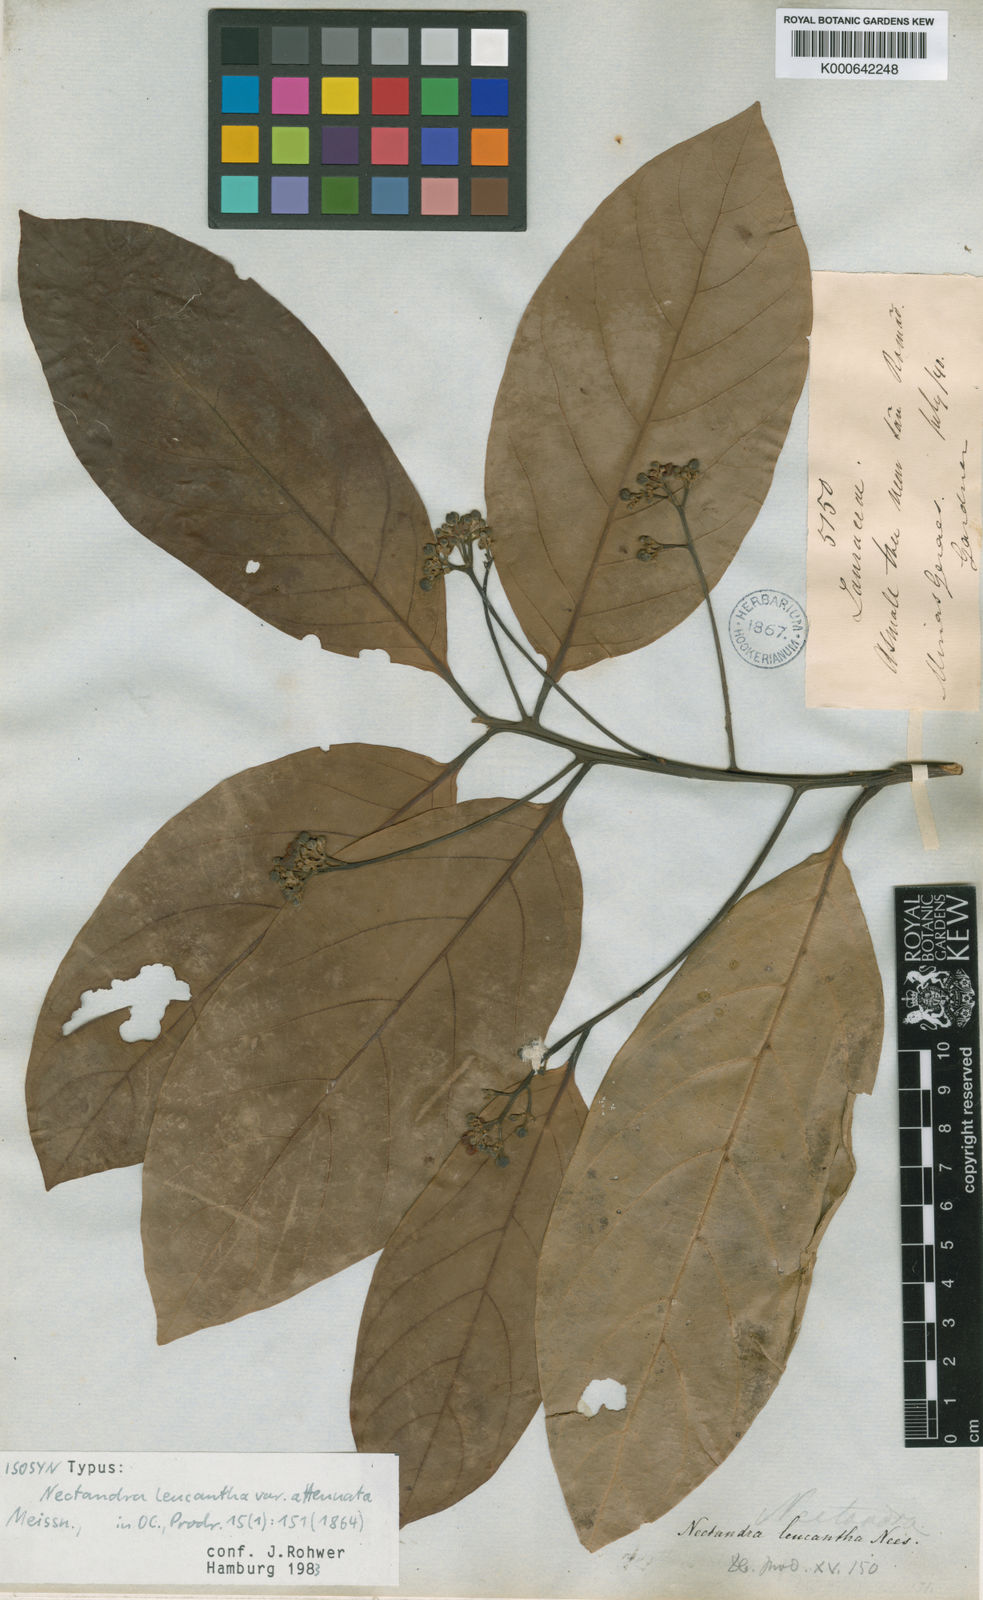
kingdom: Plantae
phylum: Tracheophyta
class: Magnoliopsida
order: Laurales
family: Lauraceae
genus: Nectandra
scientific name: Nectandra hihua
